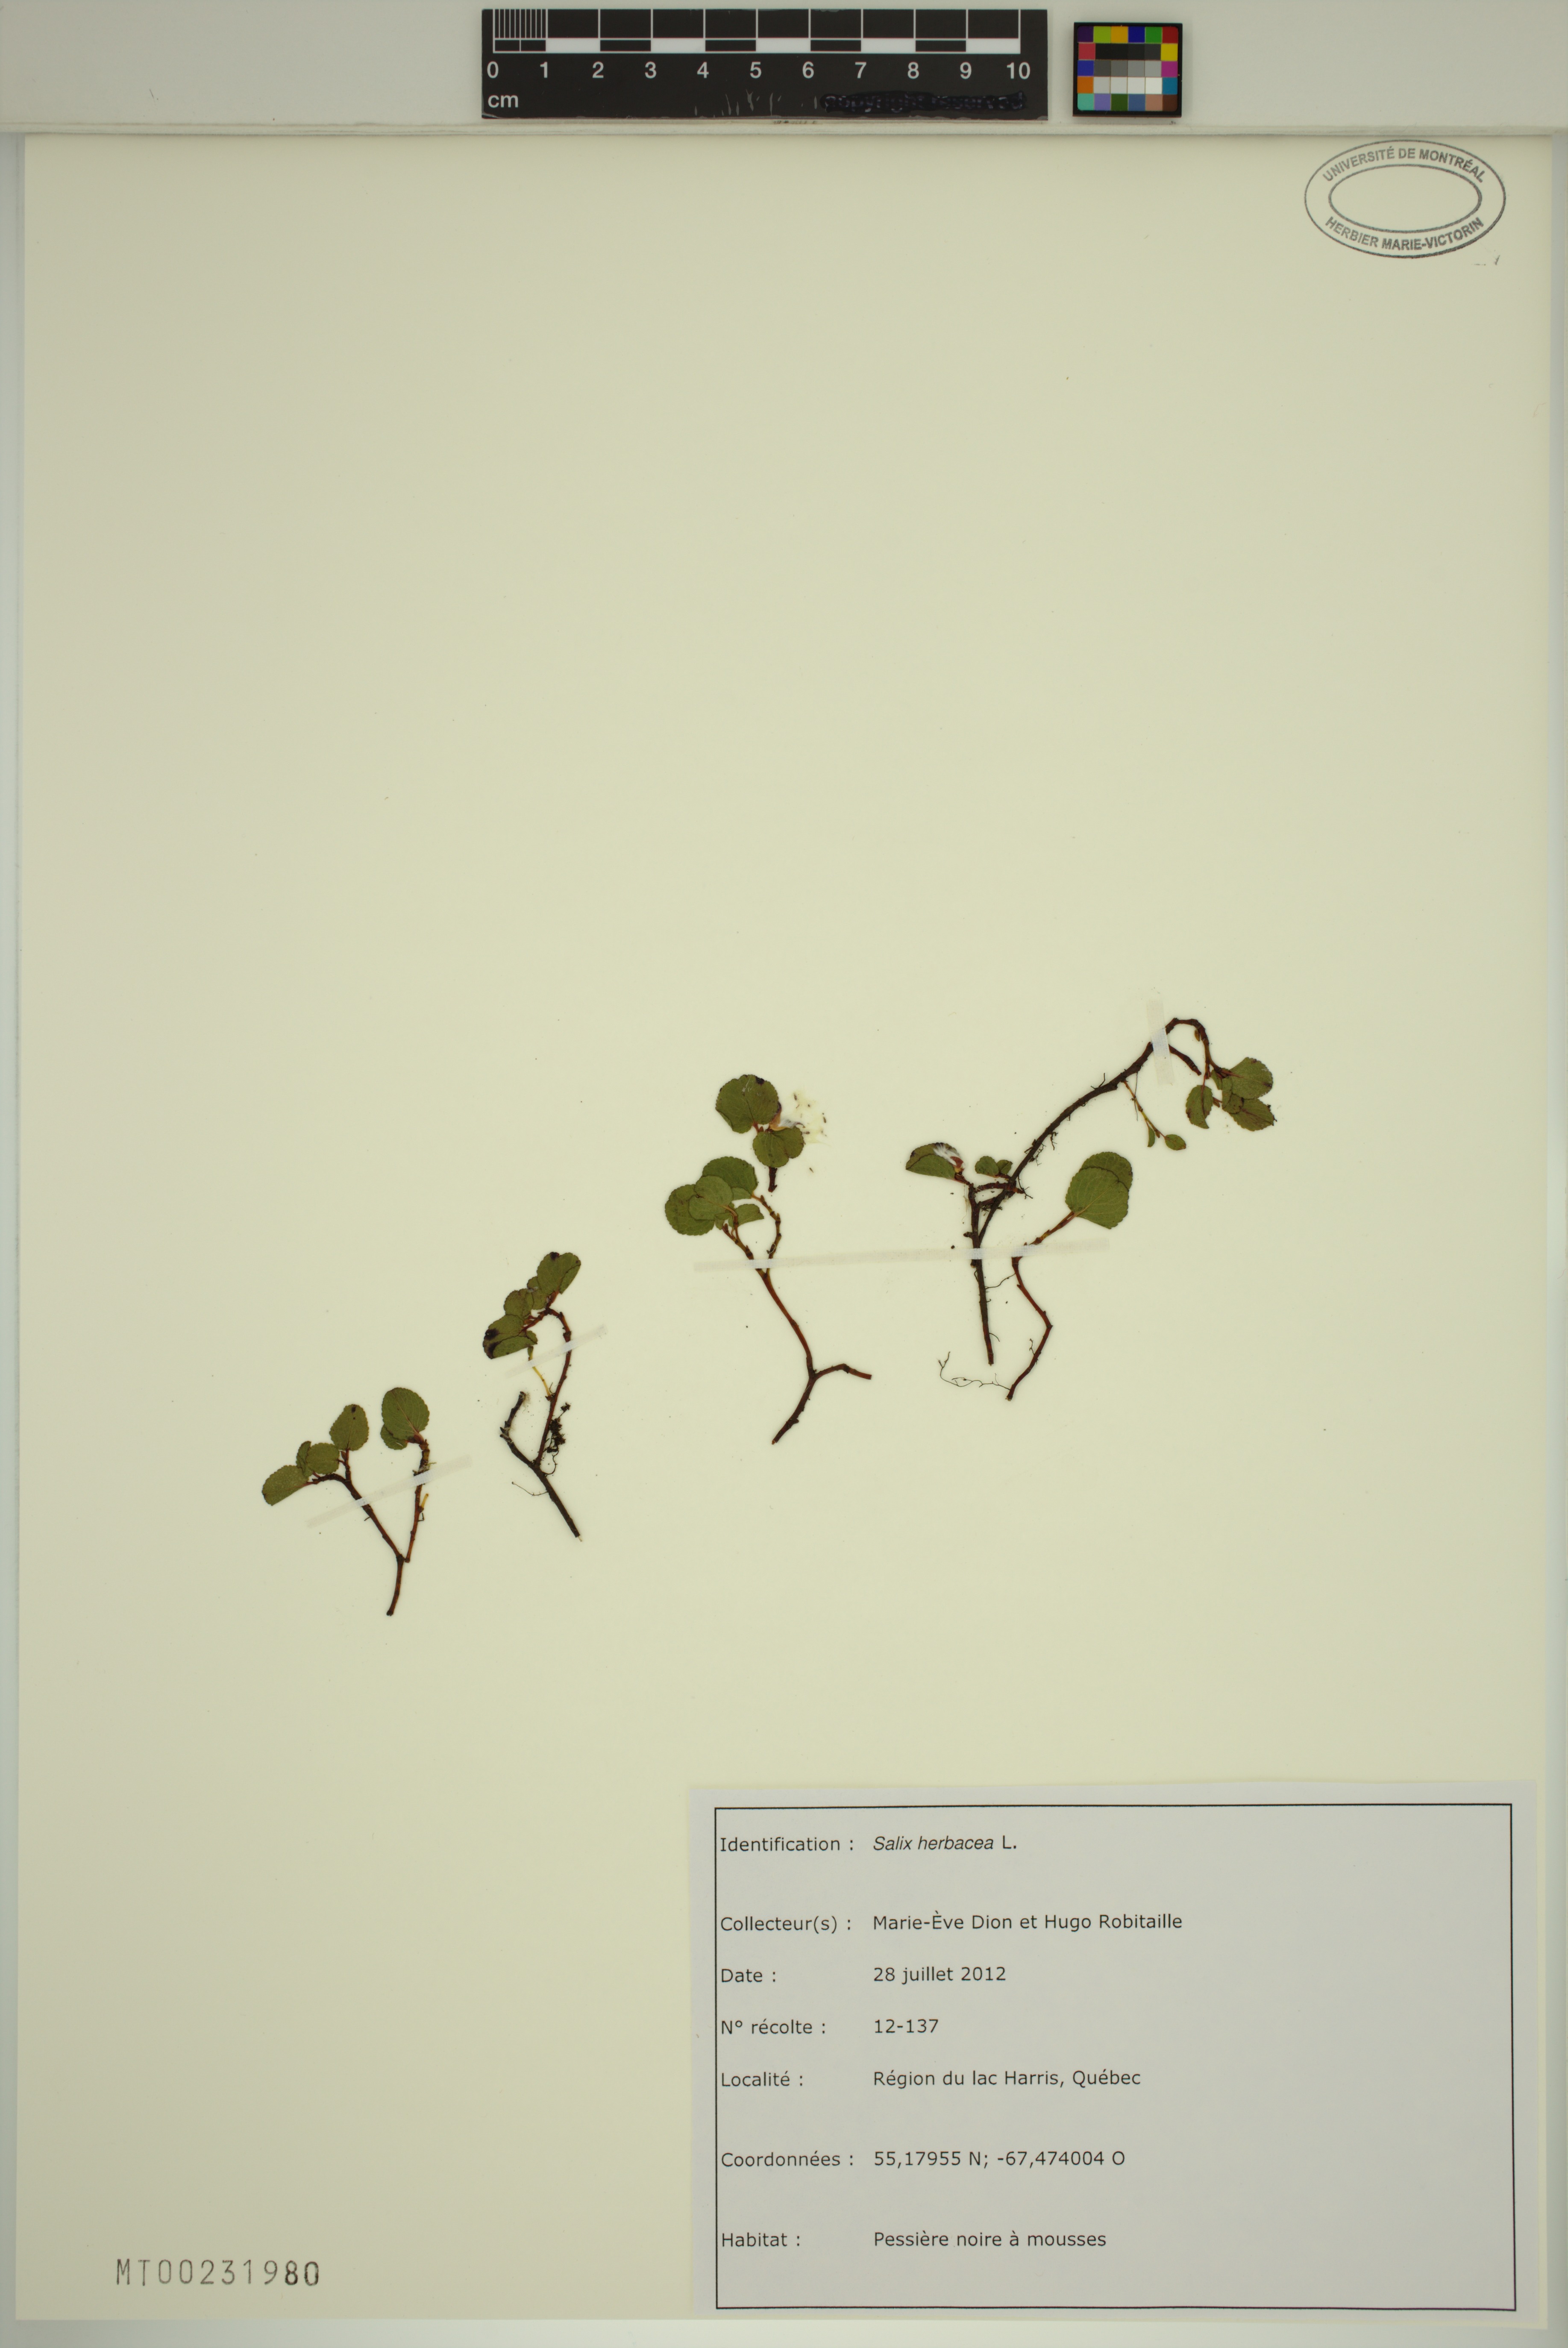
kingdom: Plantae
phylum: Tracheophyta
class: Magnoliopsida
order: Malpighiales
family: Salicaceae
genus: Salix
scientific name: Salix herbacea
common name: Dwarf willow
